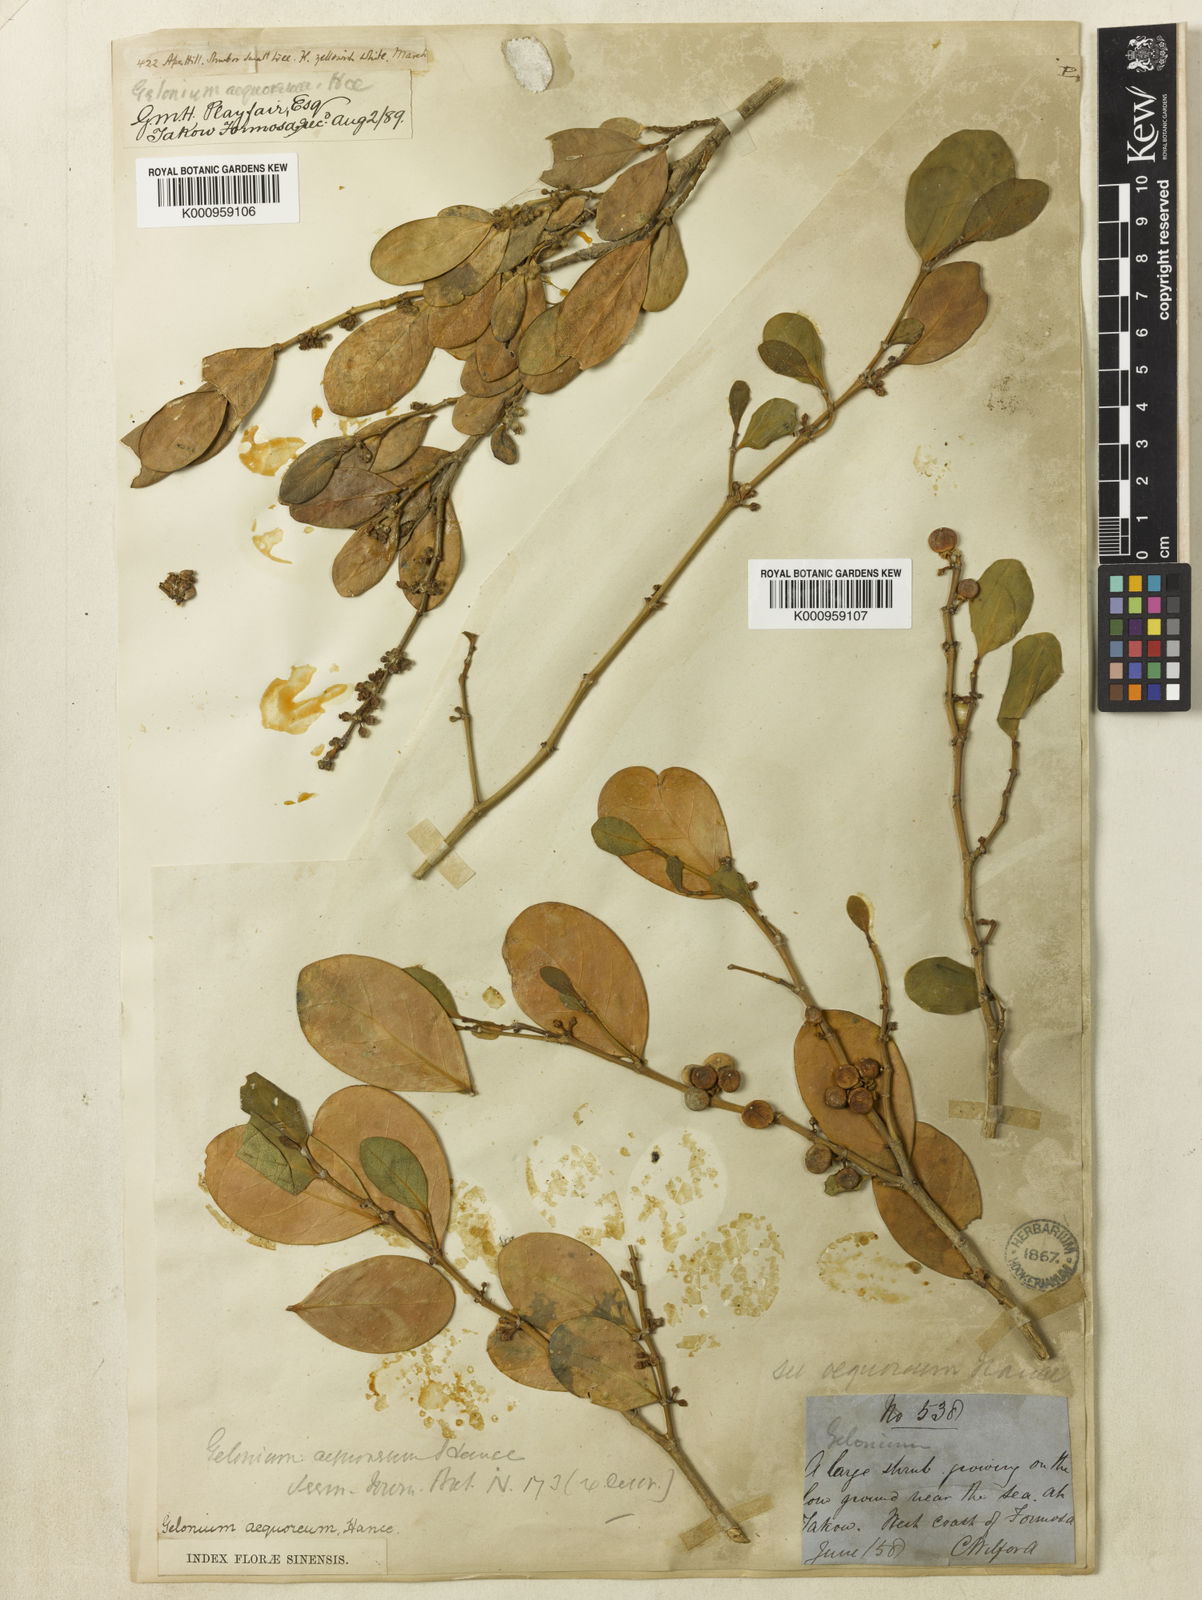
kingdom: Plantae
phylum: Tracheophyta
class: Magnoliopsida
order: Malpighiales
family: Euphorbiaceae
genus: Suregada
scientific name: Suregada aequorea
